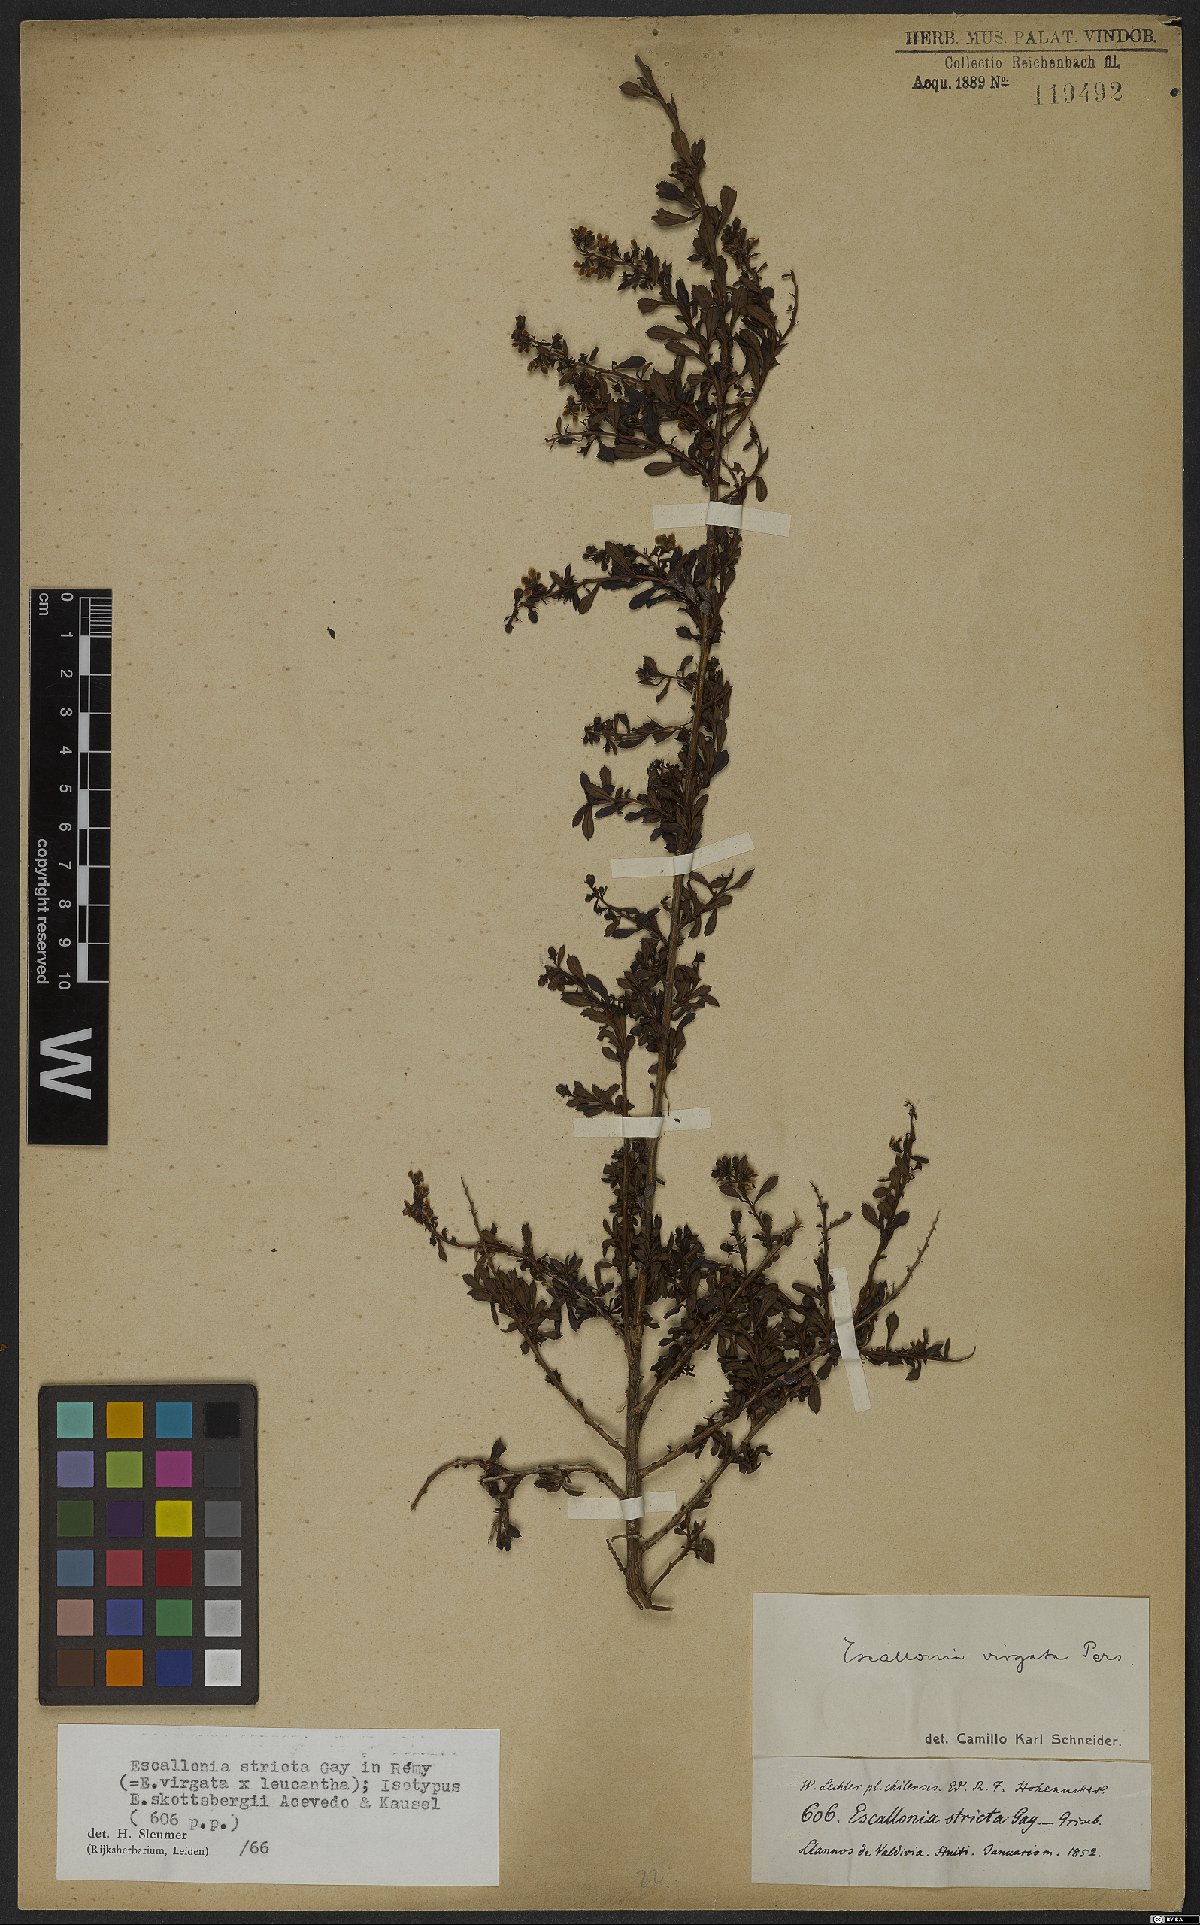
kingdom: Plantae
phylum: Tracheophyta
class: Magnoliopsida
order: Escalloniales
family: Escalloniaceae
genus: Escallonia
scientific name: Escallonia virgata
